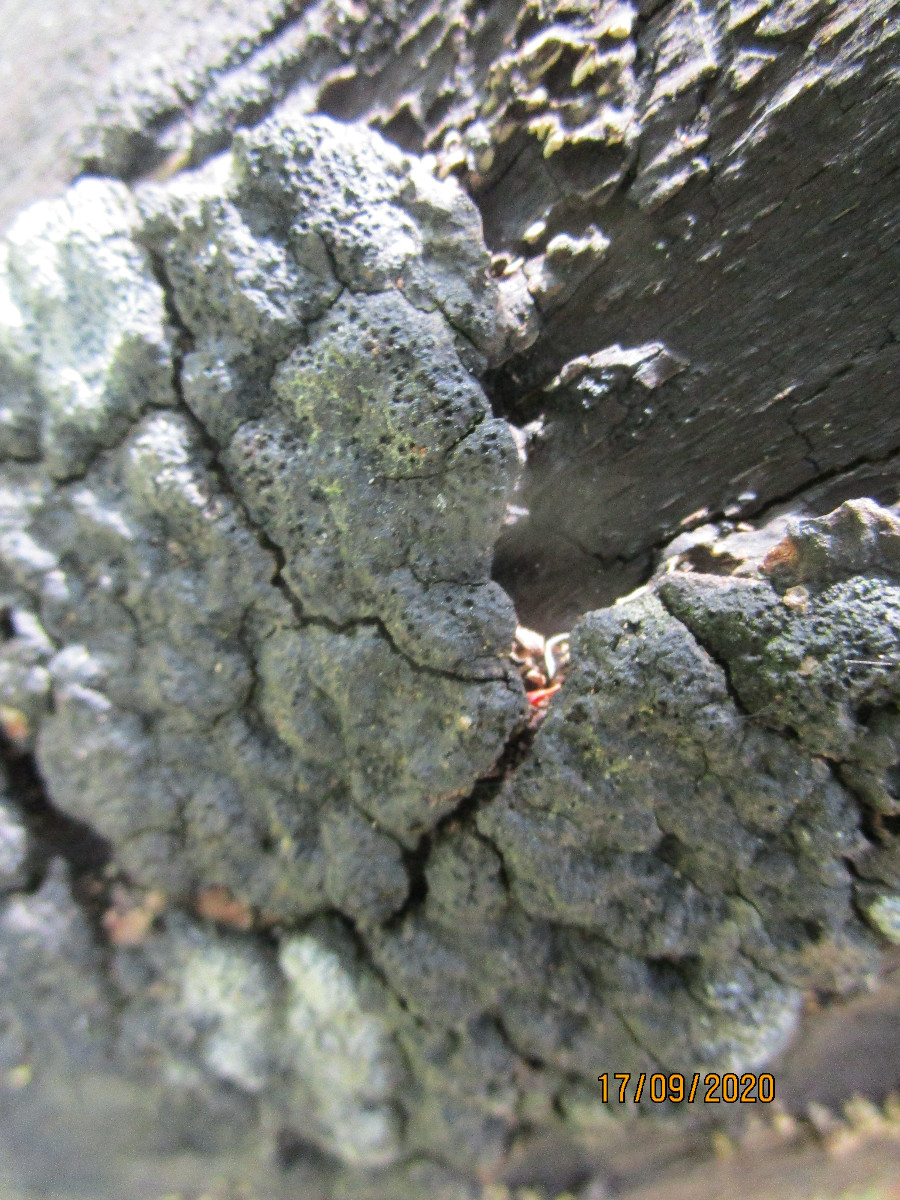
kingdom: Fungi
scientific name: Fungi
